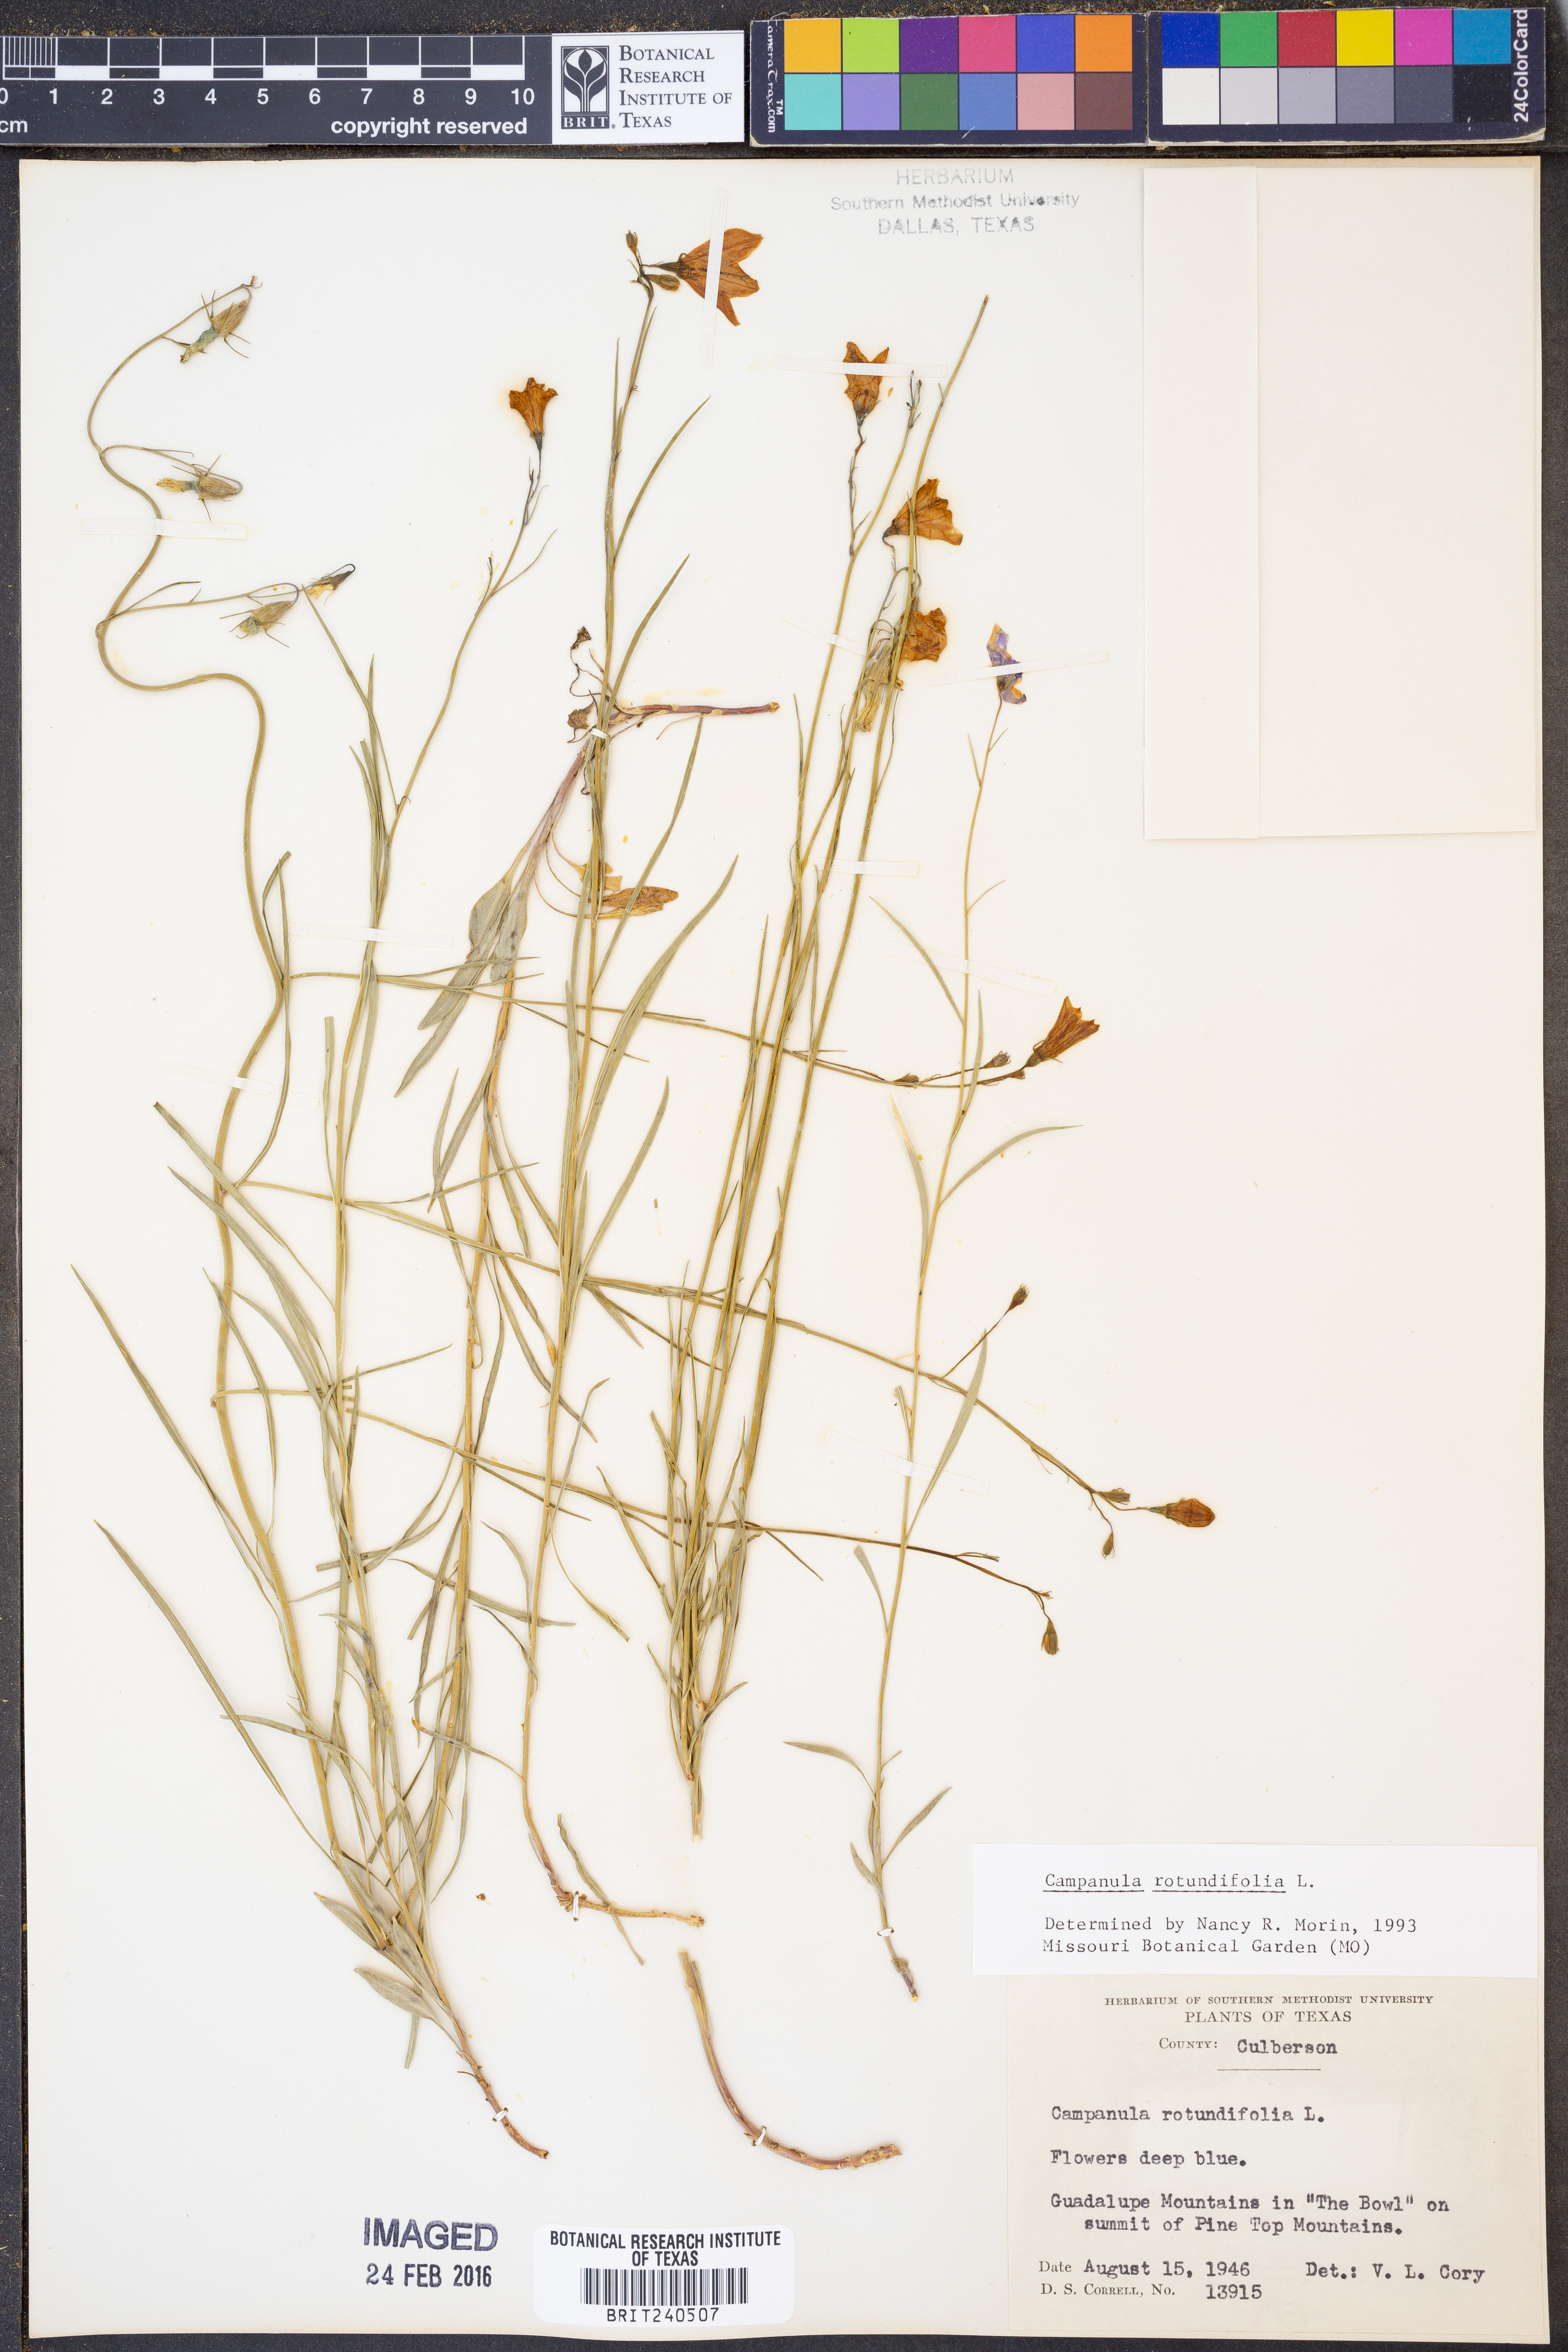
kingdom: Plantae
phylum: Tracheophyta
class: Magnoliopsida
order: Asterales
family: Campanulaceae
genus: Campanula
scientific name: Campanula rotundifolia
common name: Harebell
